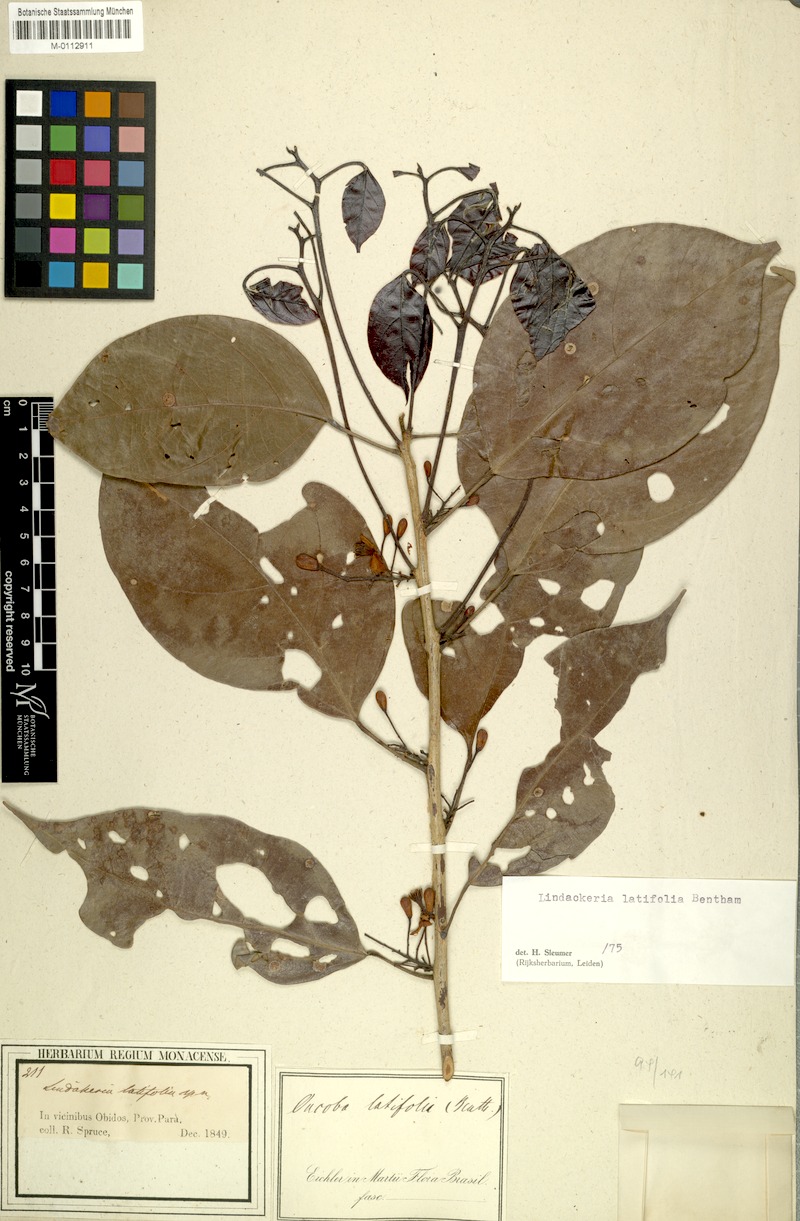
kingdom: Plantae
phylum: Tracheophyta
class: Magnoliopsida
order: Malpighiales
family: Achariaceae
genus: Lindackeria
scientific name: Lindackeria latifolia
